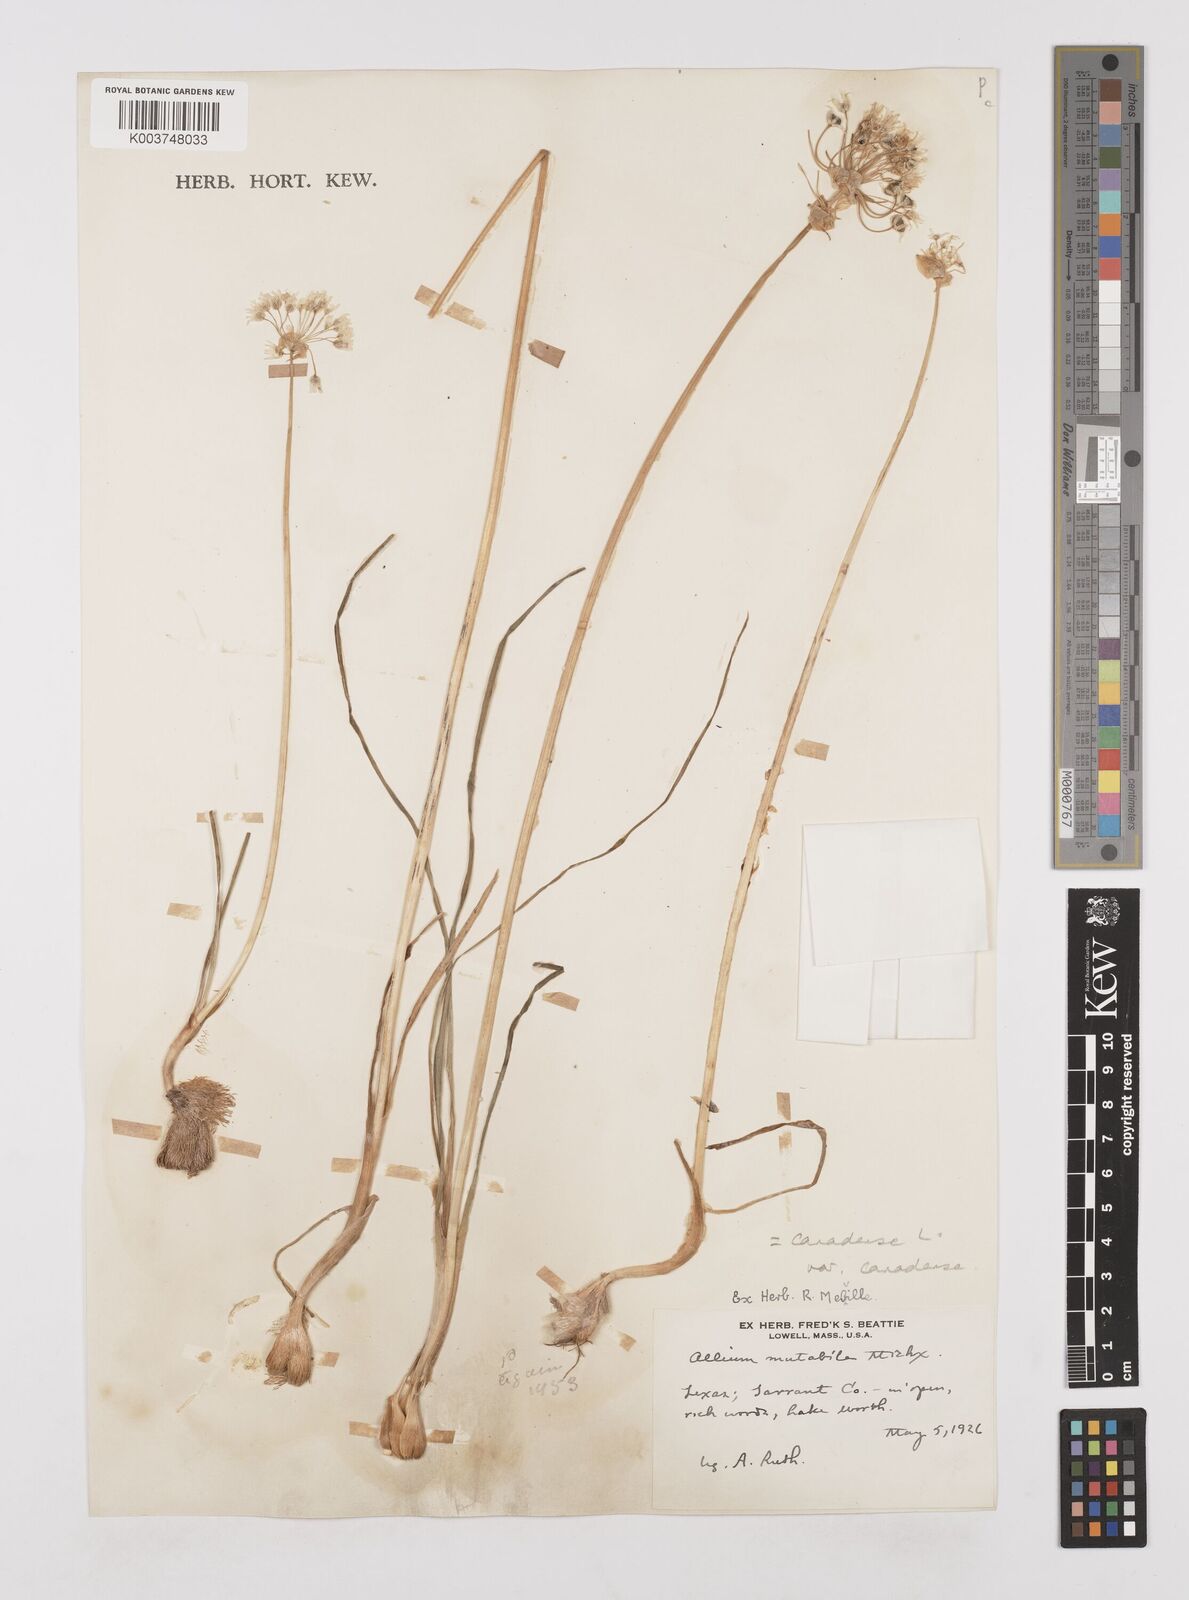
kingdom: Plantae
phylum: Tracheophyta
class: Liliopsida
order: Asparagales
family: Amaryllidaceae
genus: Allium
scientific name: Allium canadense
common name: Meadow garlic
